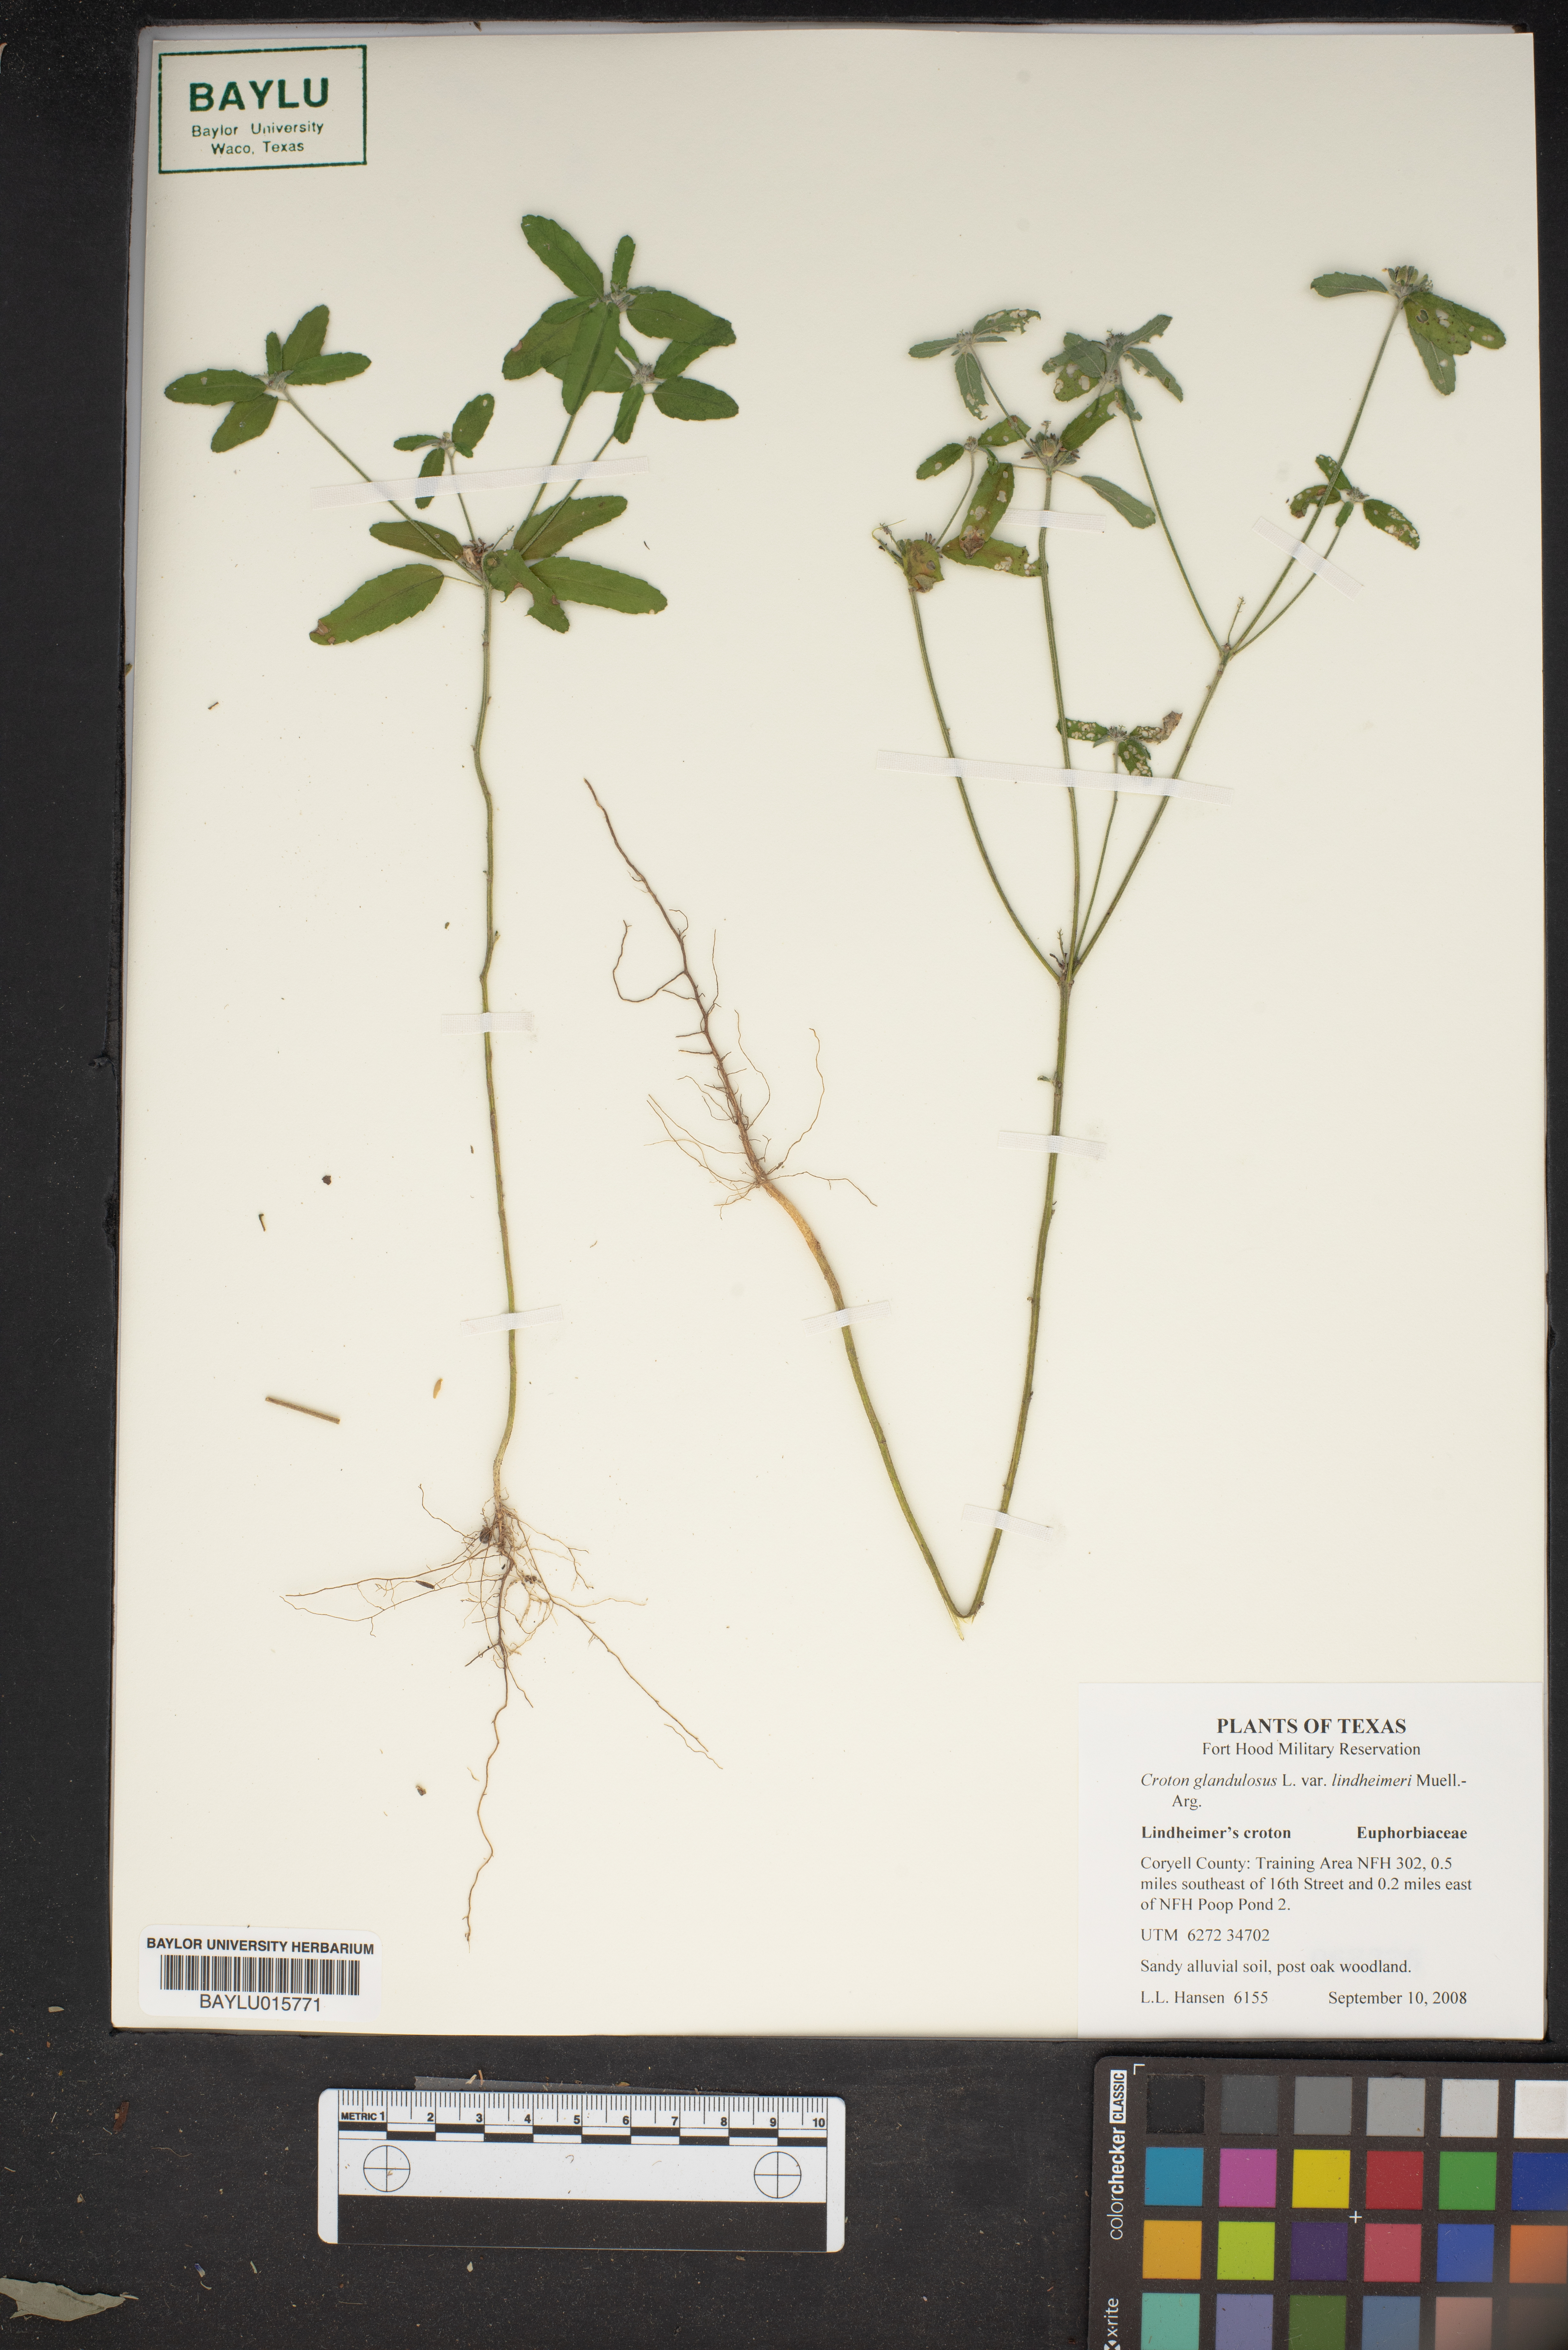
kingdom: Plantae
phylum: Tracheophyta
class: Magnoliopsida
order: Malpighiales
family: Euphorbiaceae
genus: Croton
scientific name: Croton glandulosus
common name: Tropic croton
